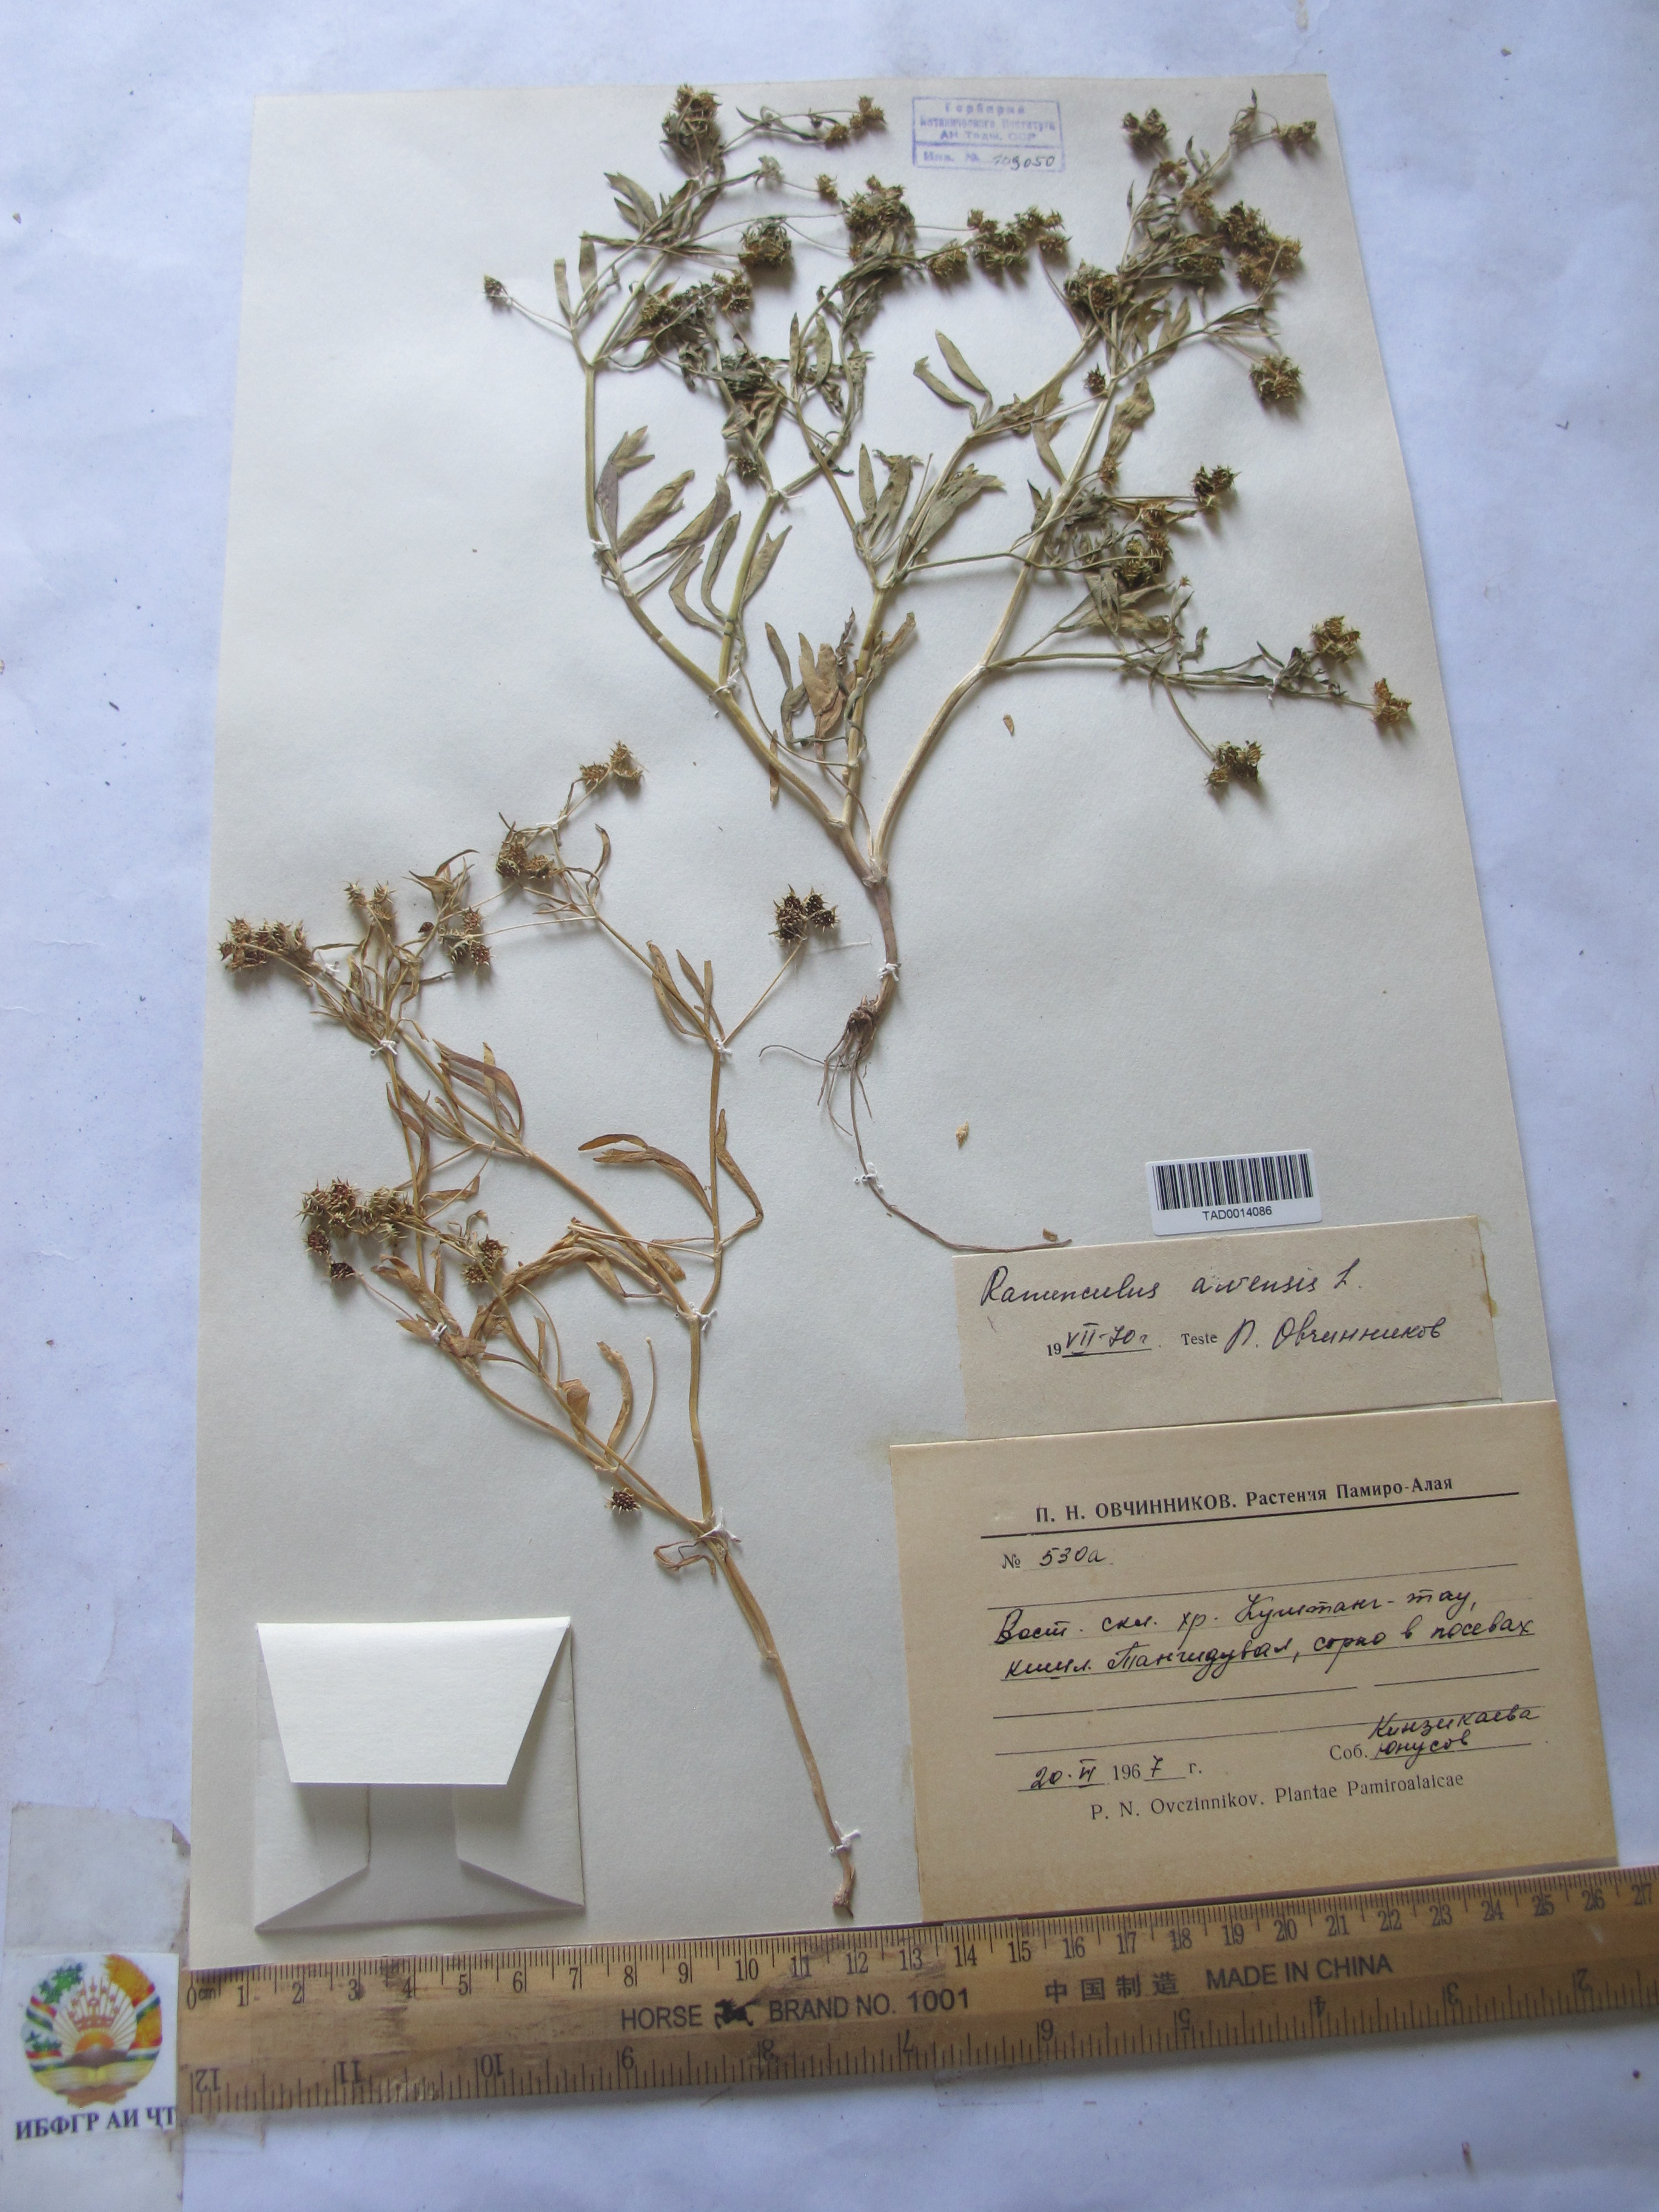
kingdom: Plantae
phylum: Tracheophyta
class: Magnoliopsida
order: Ranunculales
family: Ranunculaceae
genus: Ranunculus
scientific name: Ranunculus arvensis
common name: Corn buttercup
